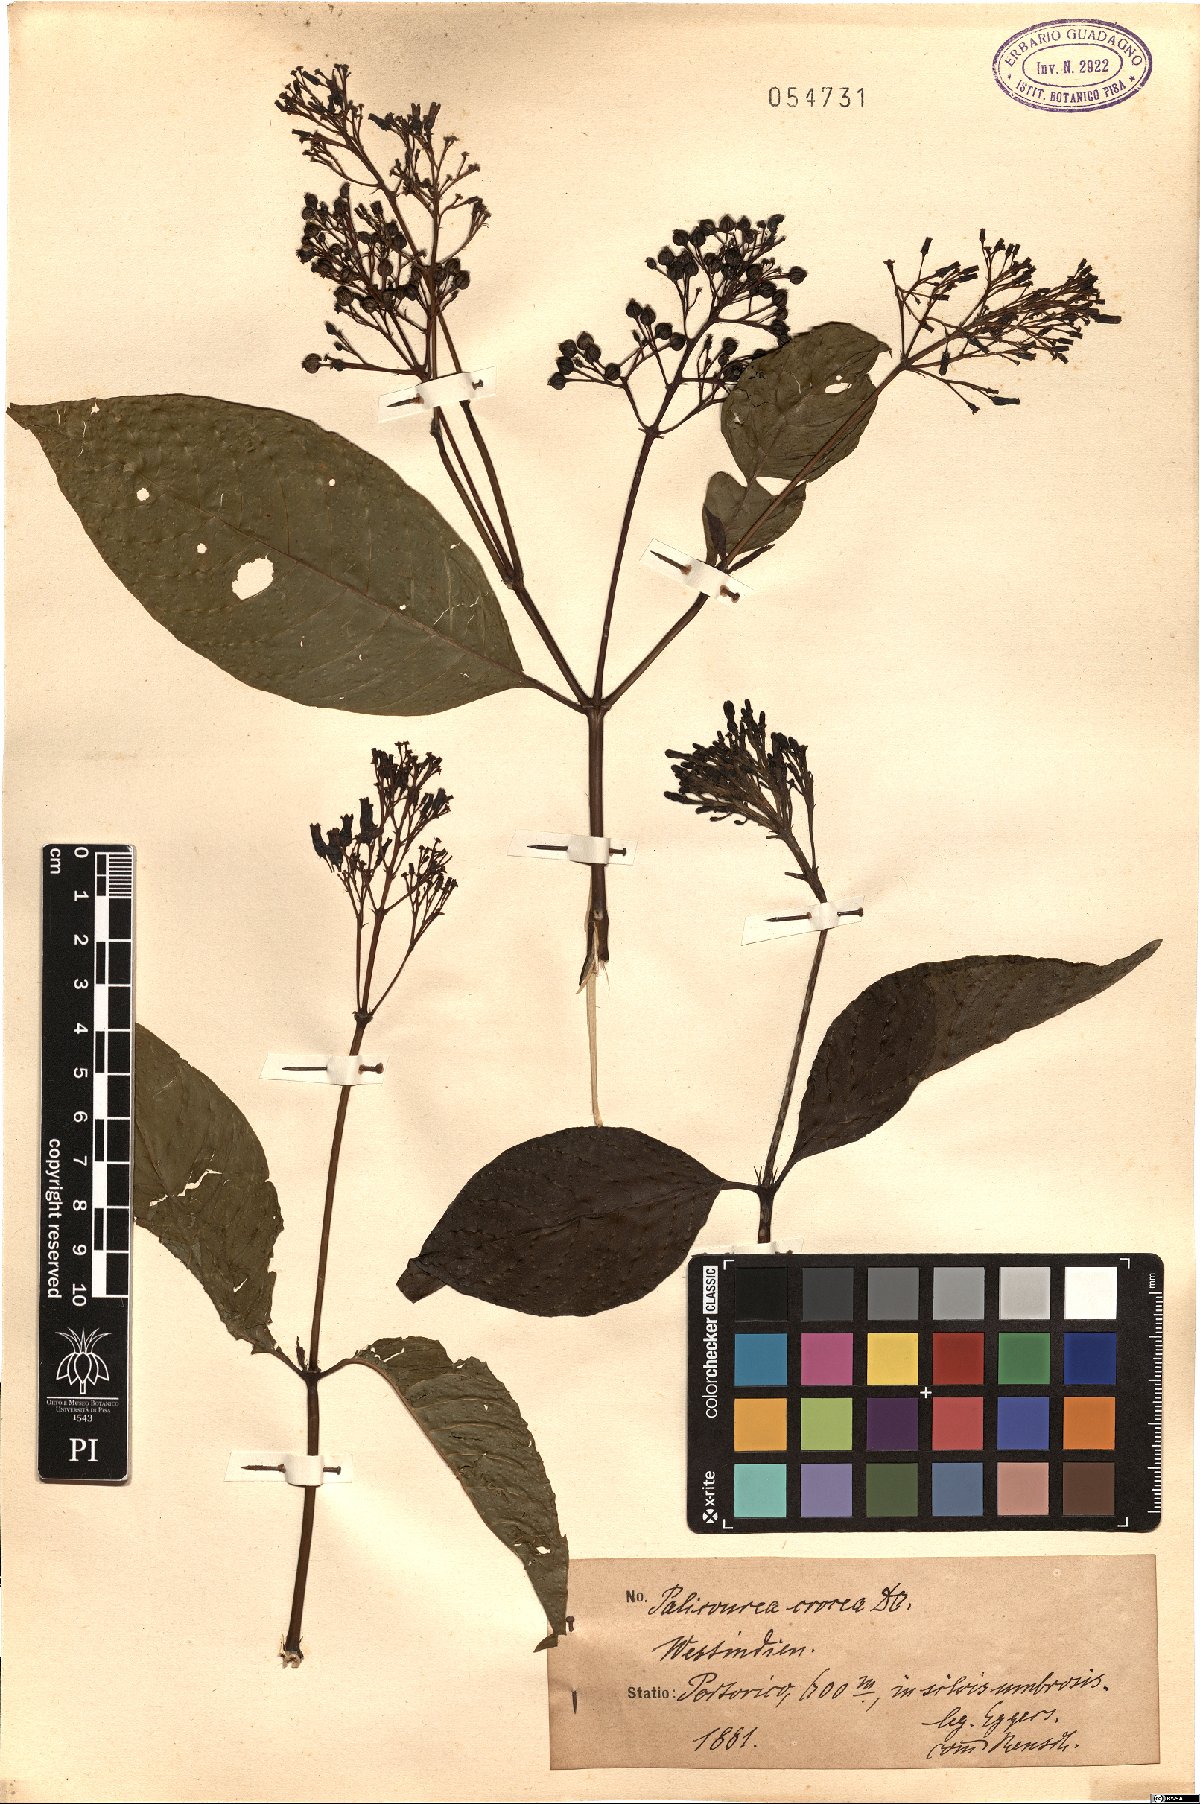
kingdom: Plantae
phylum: Tracheophyta
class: Magnoliopsida
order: Gentianales
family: Rubiaceae
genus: Palicourea
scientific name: Palicourea crocea
